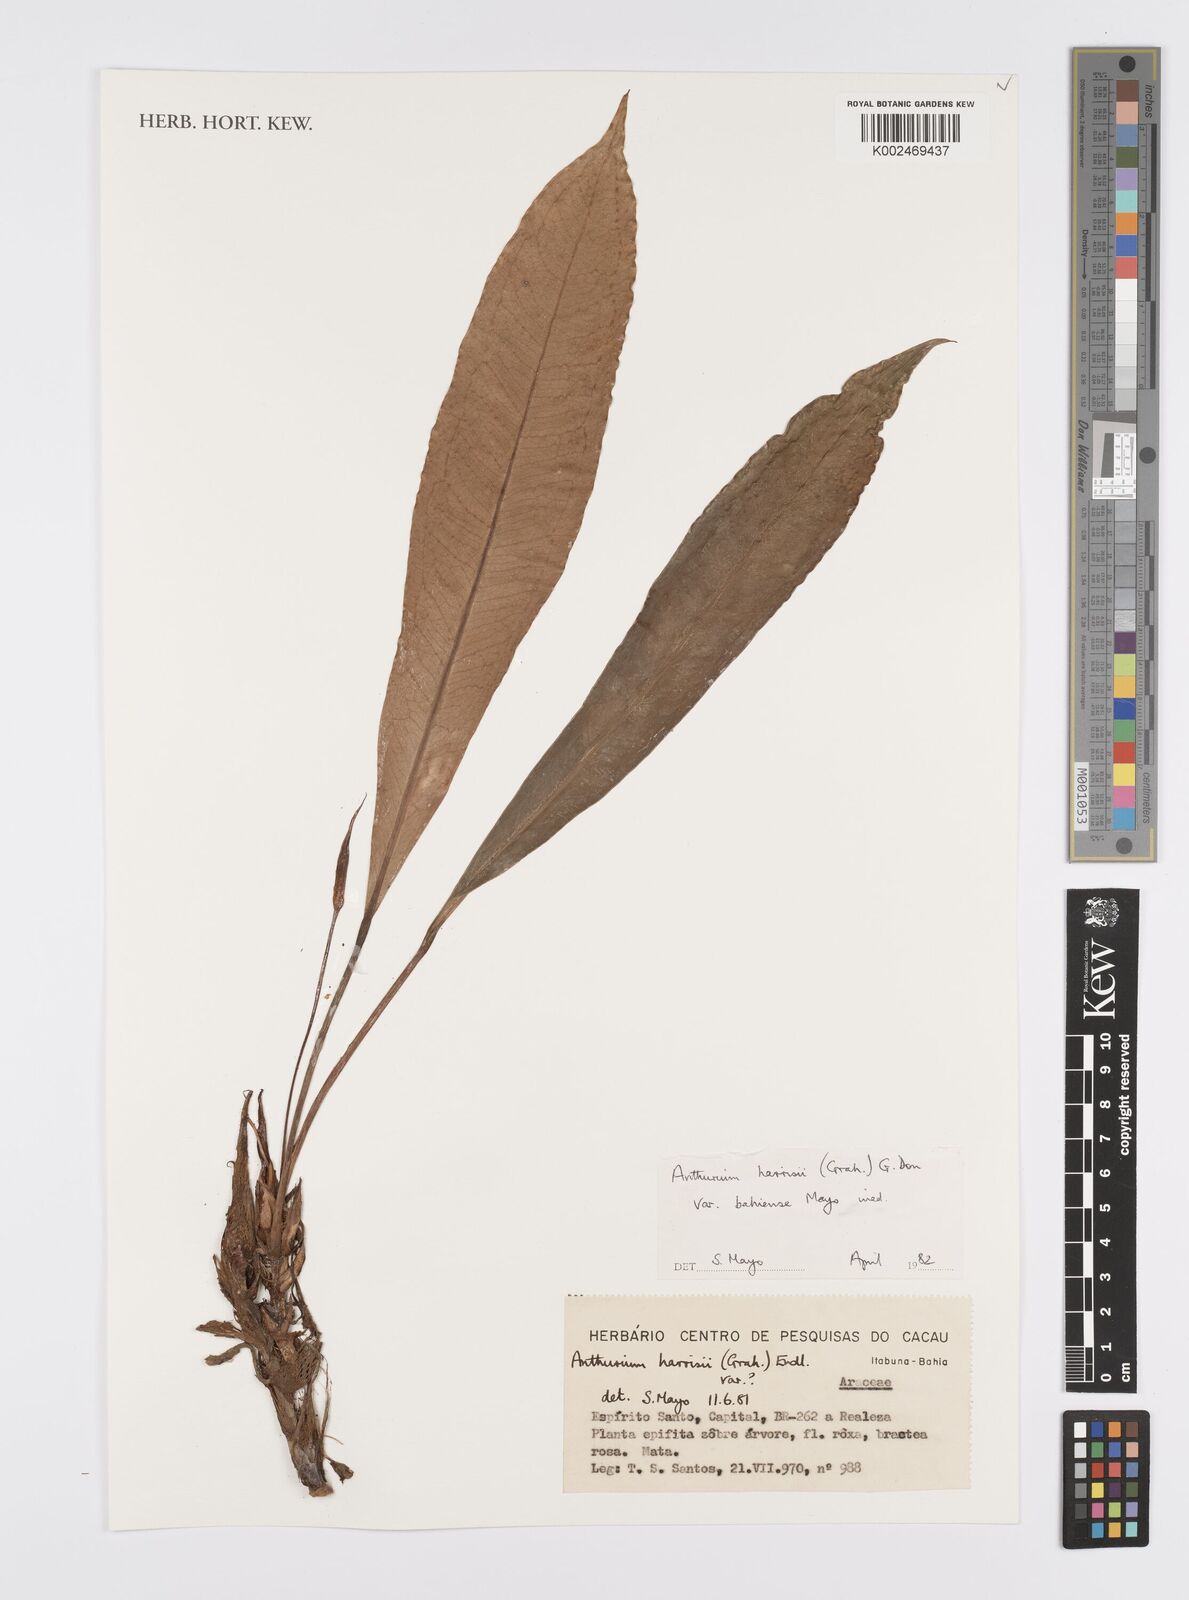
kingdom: Plantae
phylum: Tracheophyta
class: Liliopsida
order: Alismatales
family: Araceae
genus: Anthurium
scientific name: Anthurium harrisii
